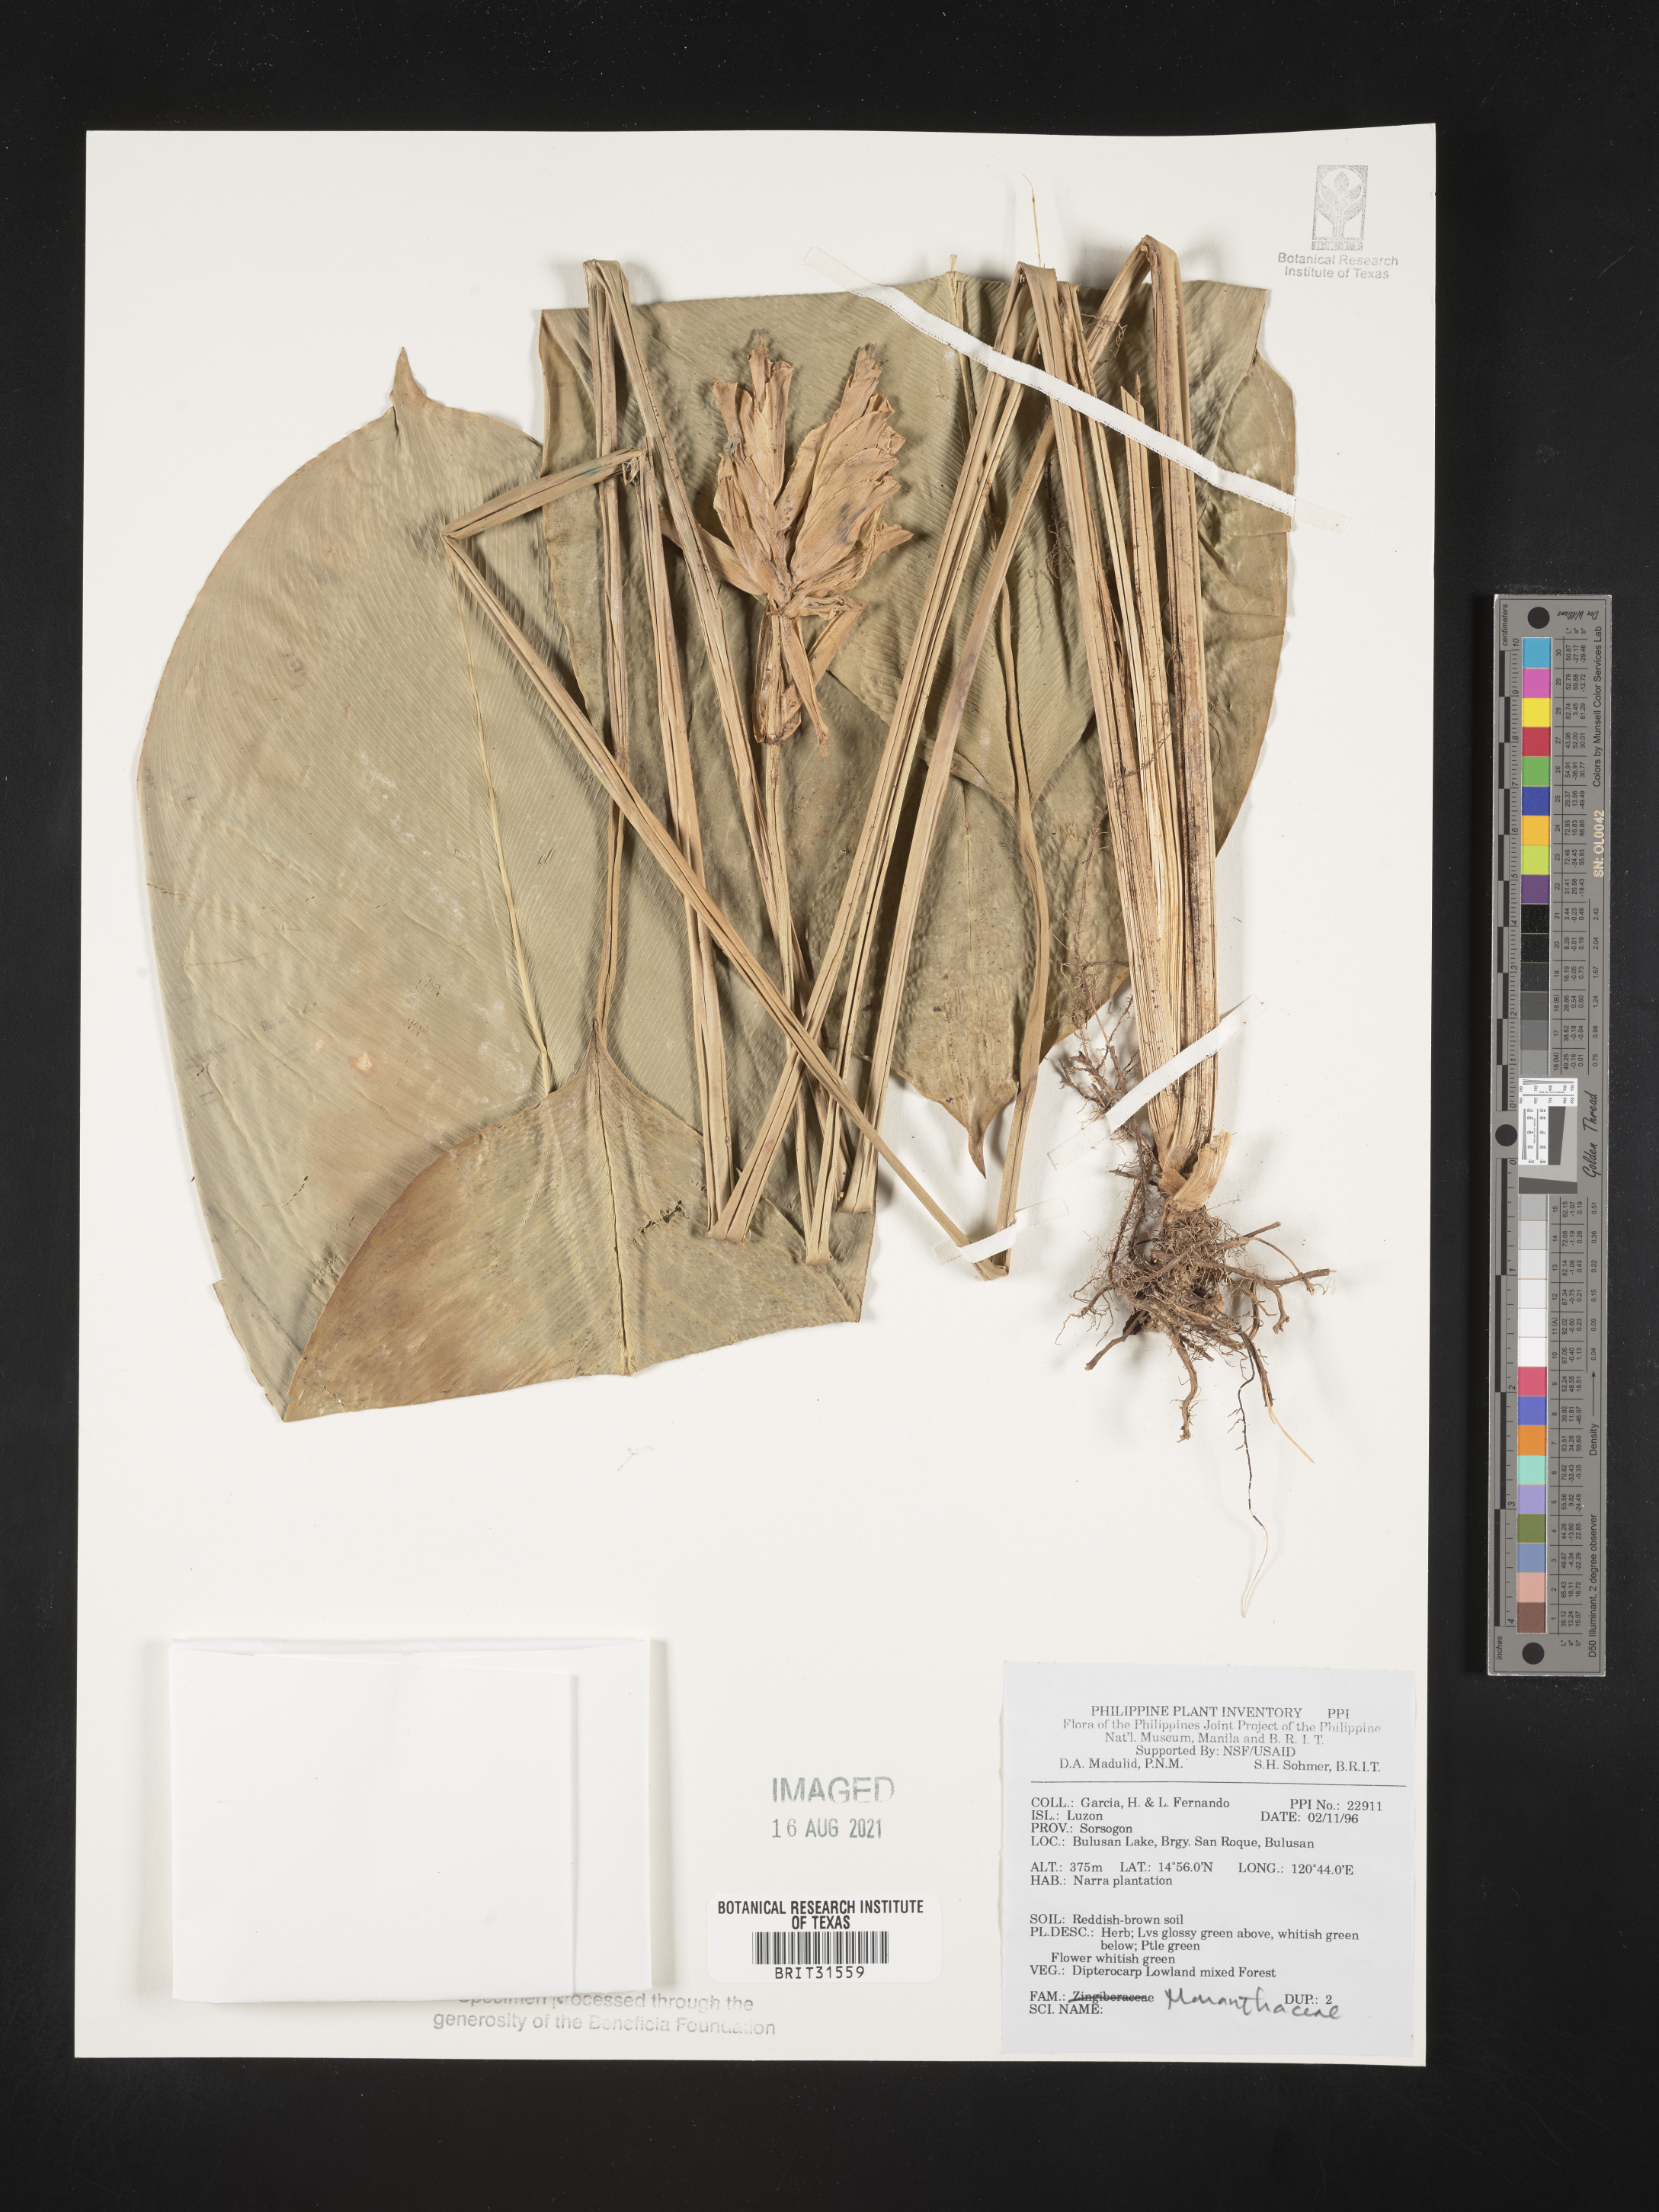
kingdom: Plantae
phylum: Tracheophyta
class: Liliopsida
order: Zingiberales
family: Marantaceae
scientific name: Marantaceae
